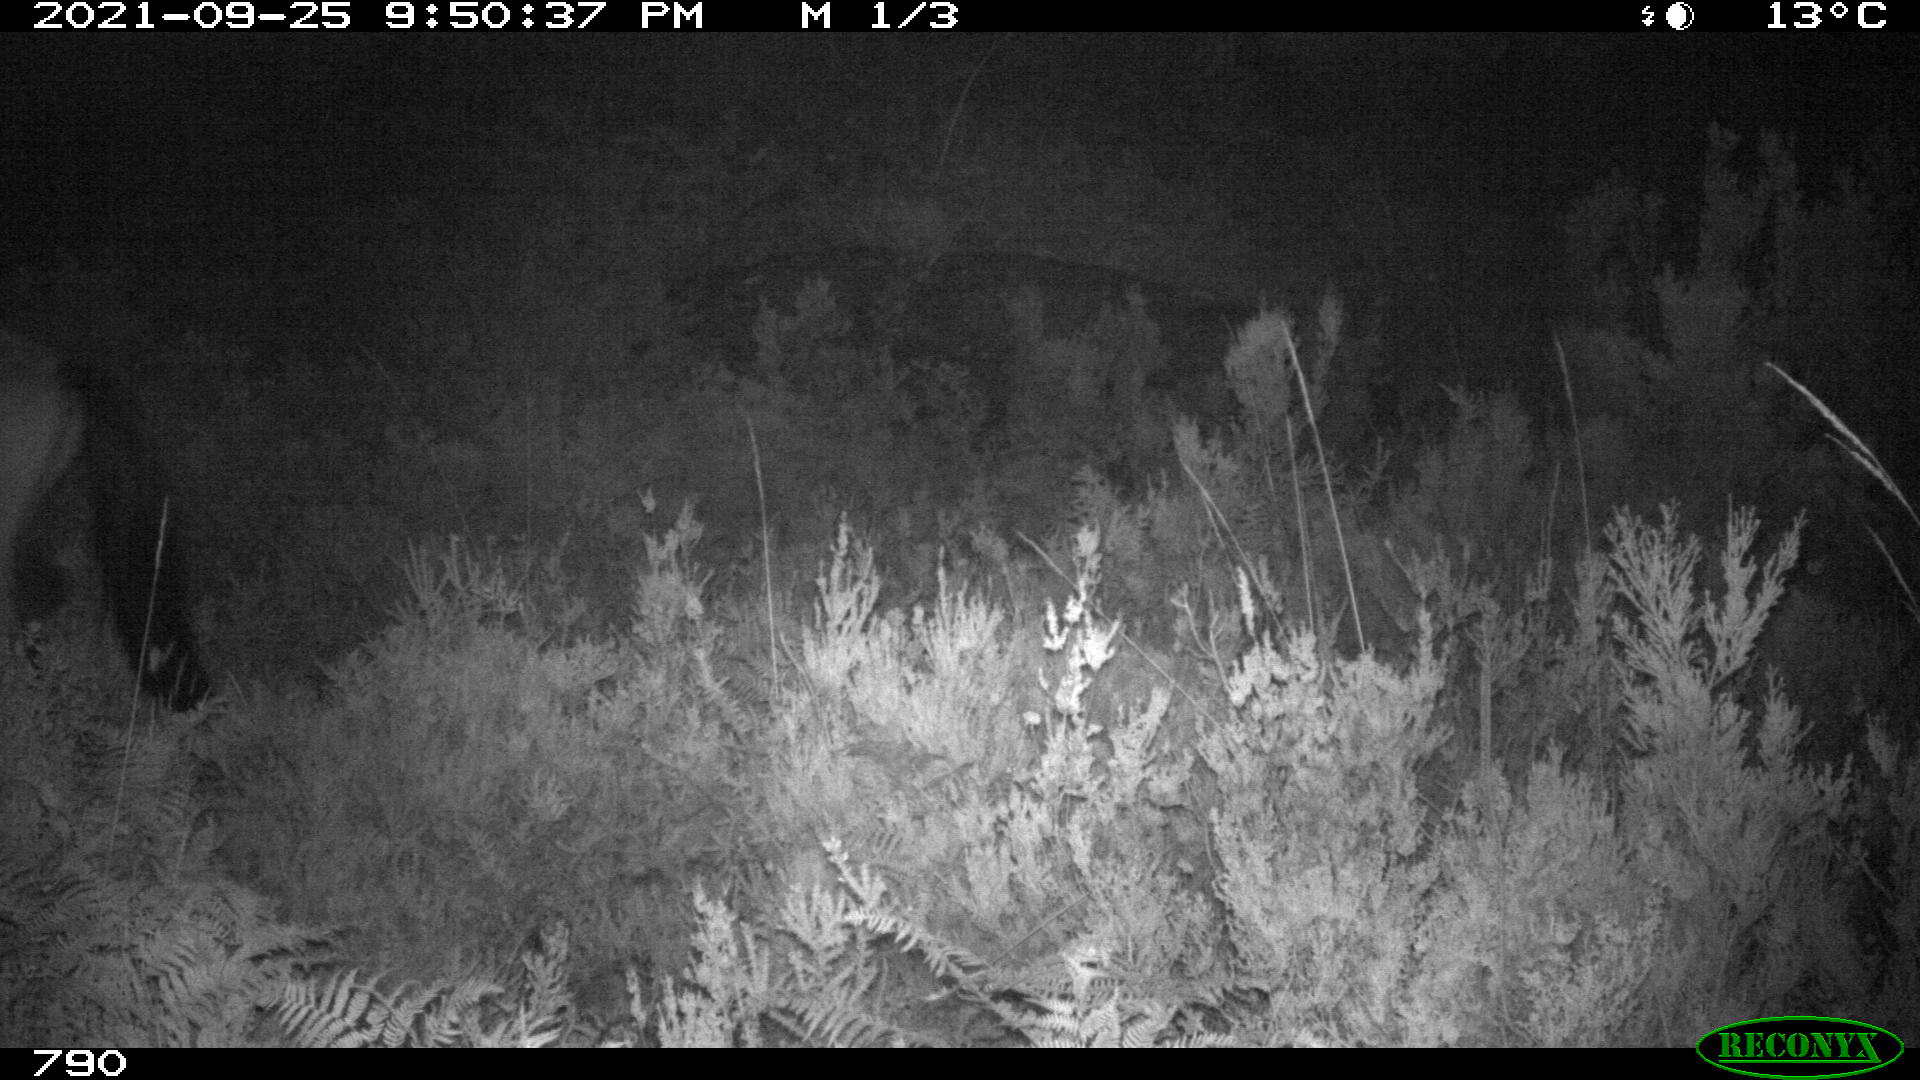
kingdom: Animalia
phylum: Chordata
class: Mammalia
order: Perissodactyla
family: Equidae
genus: Equus
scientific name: Equus caballus
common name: Horse
